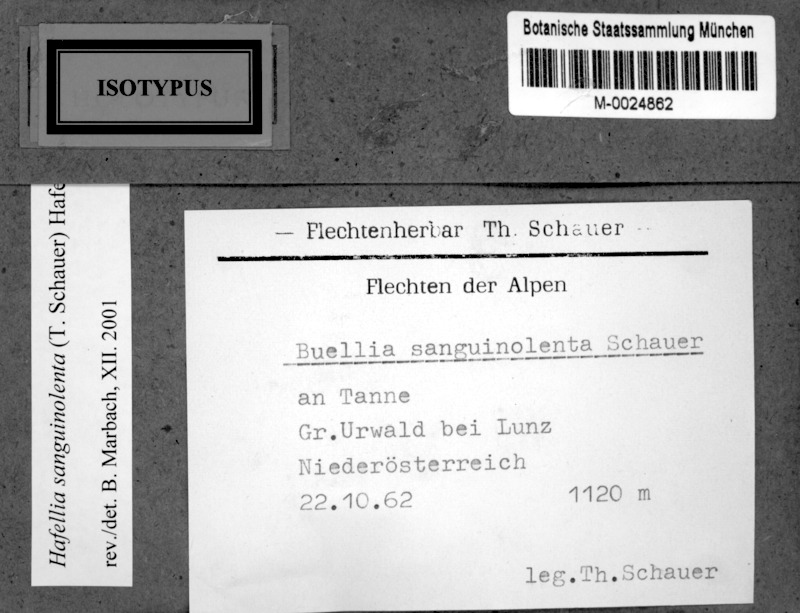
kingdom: Fungi
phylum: Ascomycota
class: Lecanoromycetes
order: Caliciales
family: Caliciaceae
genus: Buellia
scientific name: Buellia sanguinolenta
